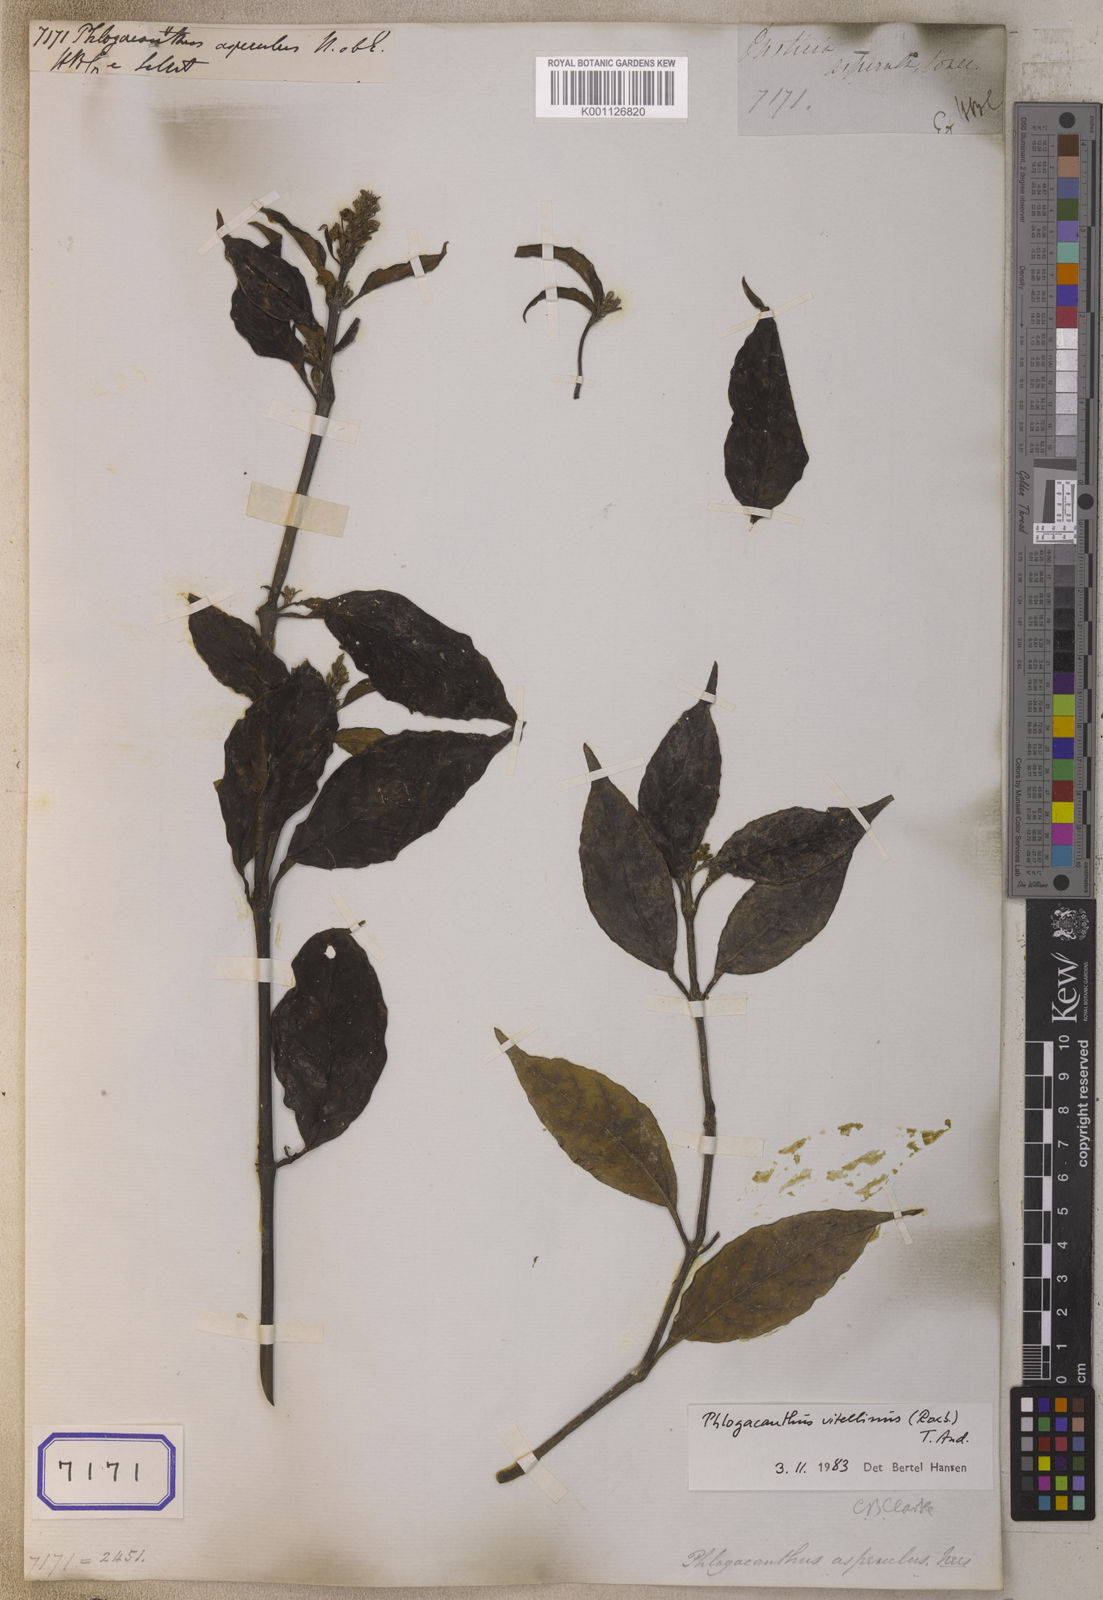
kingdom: Plantae
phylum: Tracheophyta
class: Magnoliopsida
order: Lamiales
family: Acanthaceae
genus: Phlogacanthus
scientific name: Phlogacanthus gomezii
